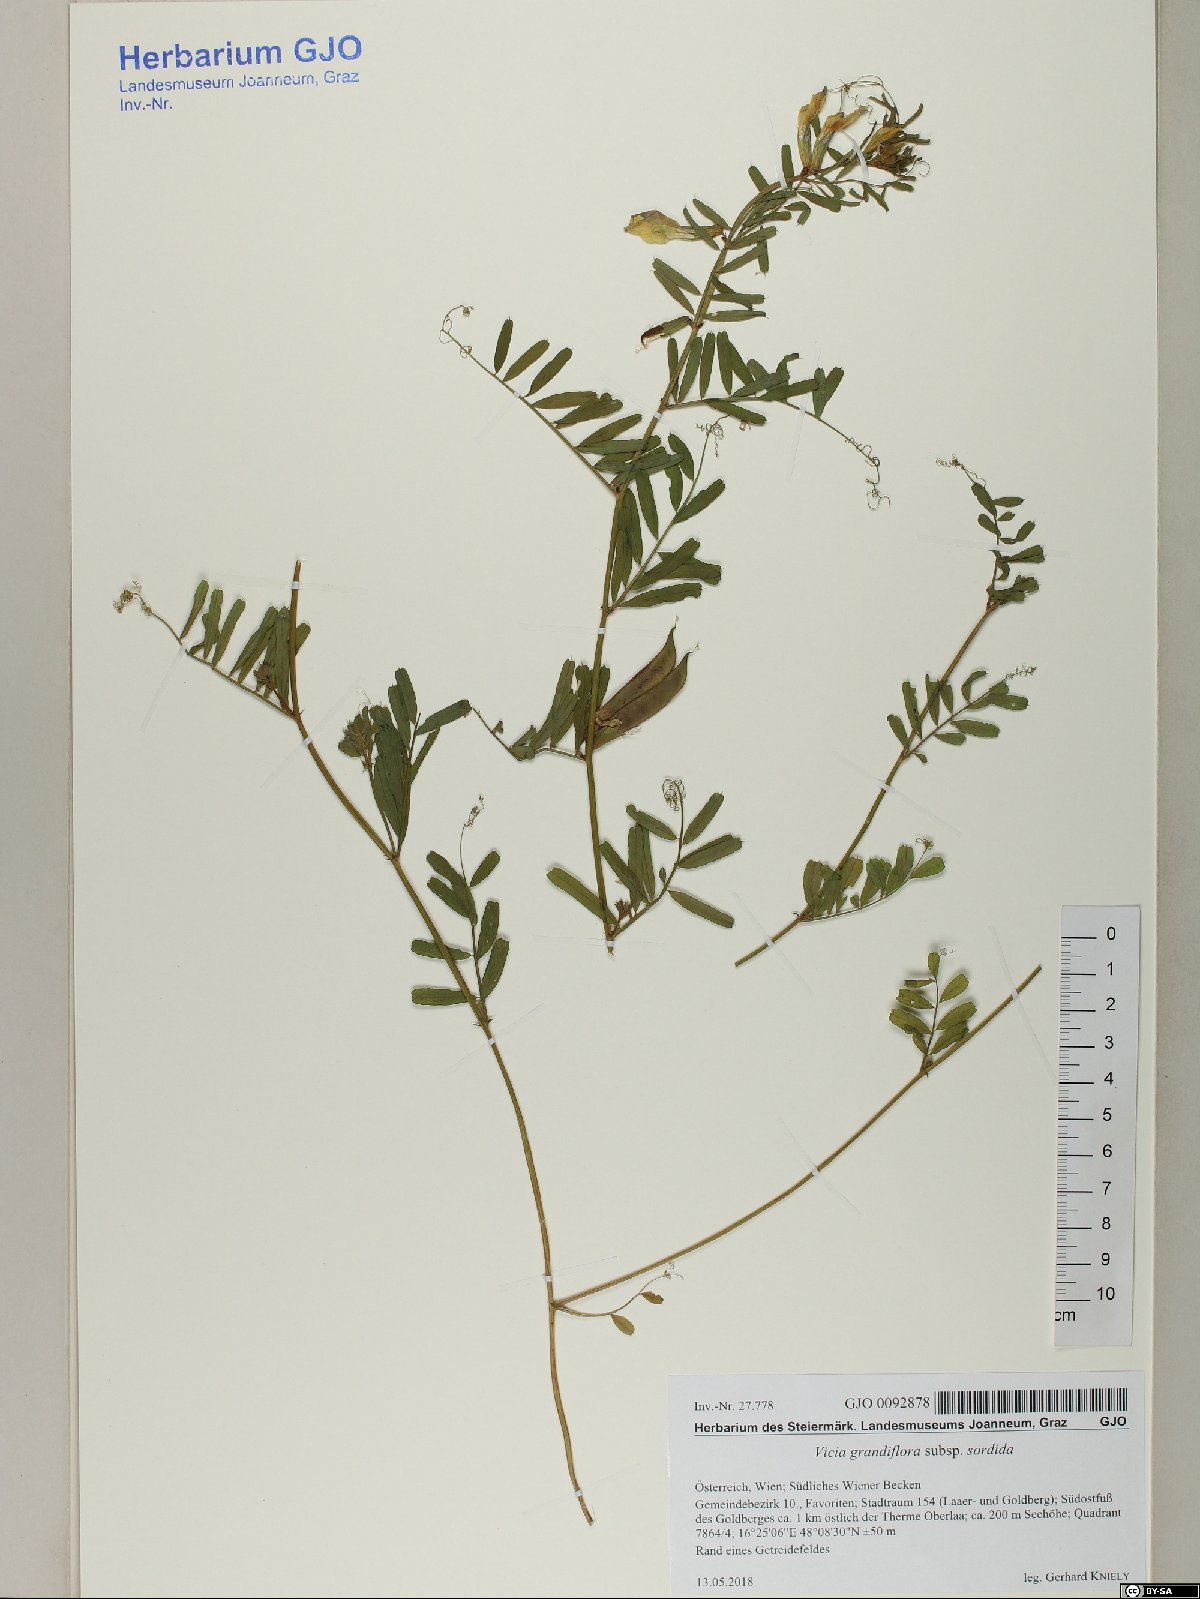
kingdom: Plantae
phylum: Tracheophyta
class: Magnoliopsida
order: Fabales
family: Fabaceae
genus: Vicia
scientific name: Vicia grandiflora
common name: Large yellow vetch
